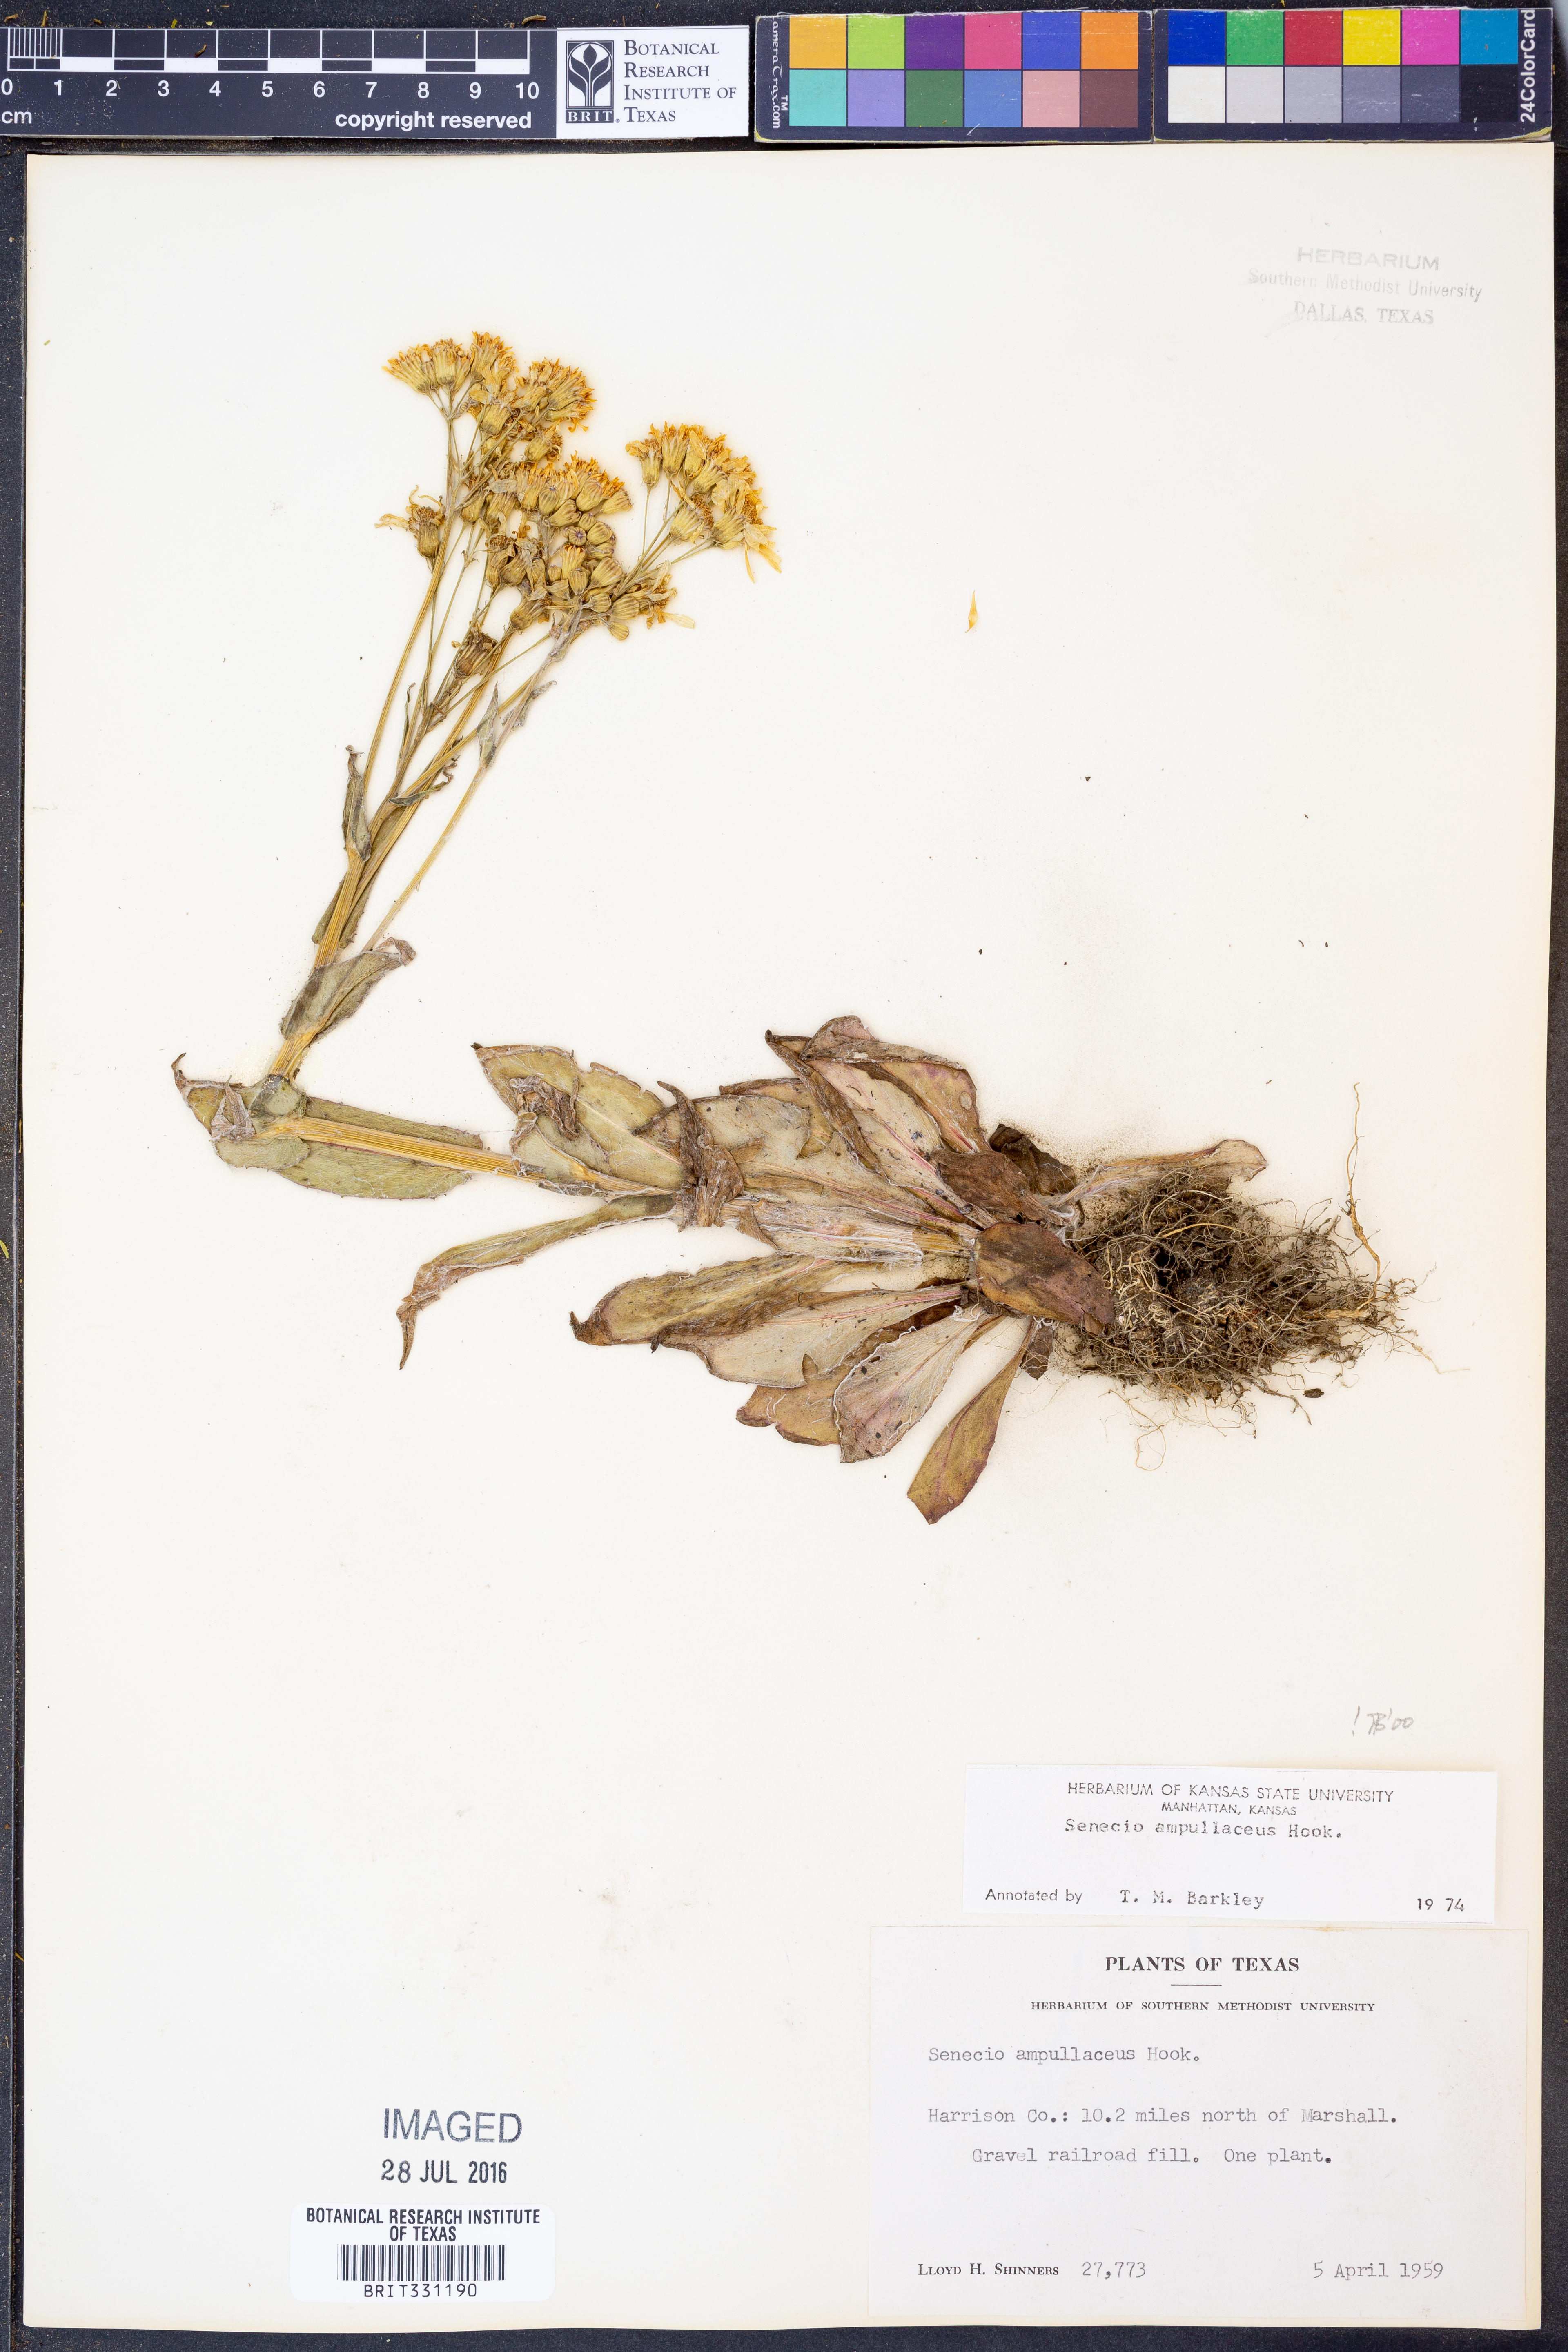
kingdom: Plantae
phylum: Tracheophyta
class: Magnoliopsida
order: Asterales
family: Asteraceae
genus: Senecio
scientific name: Senecio ampullaceus
